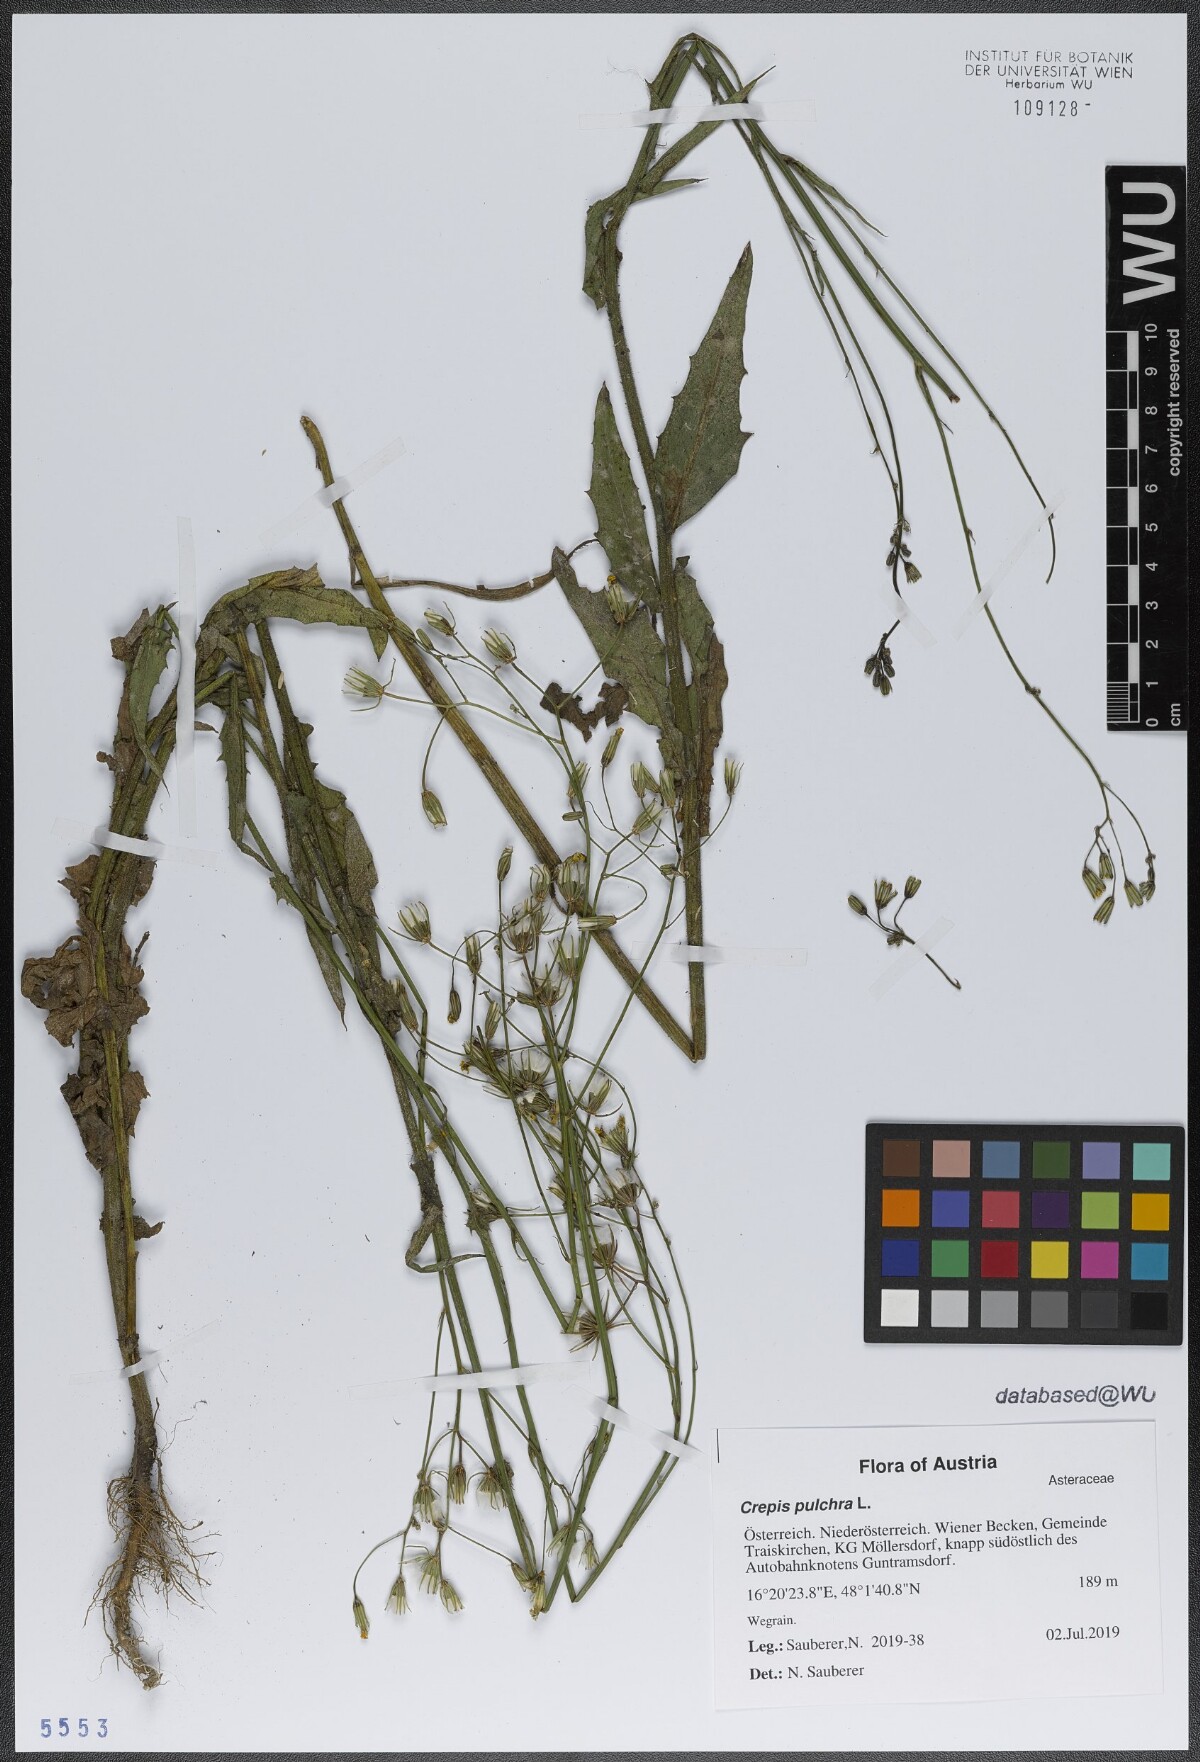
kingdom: Plantae
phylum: Tracheophyta
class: Magnoliopsida
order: Asterales
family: Asteraceae
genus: Crepis
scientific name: Crepis pulchra
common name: Hawk's-beard
